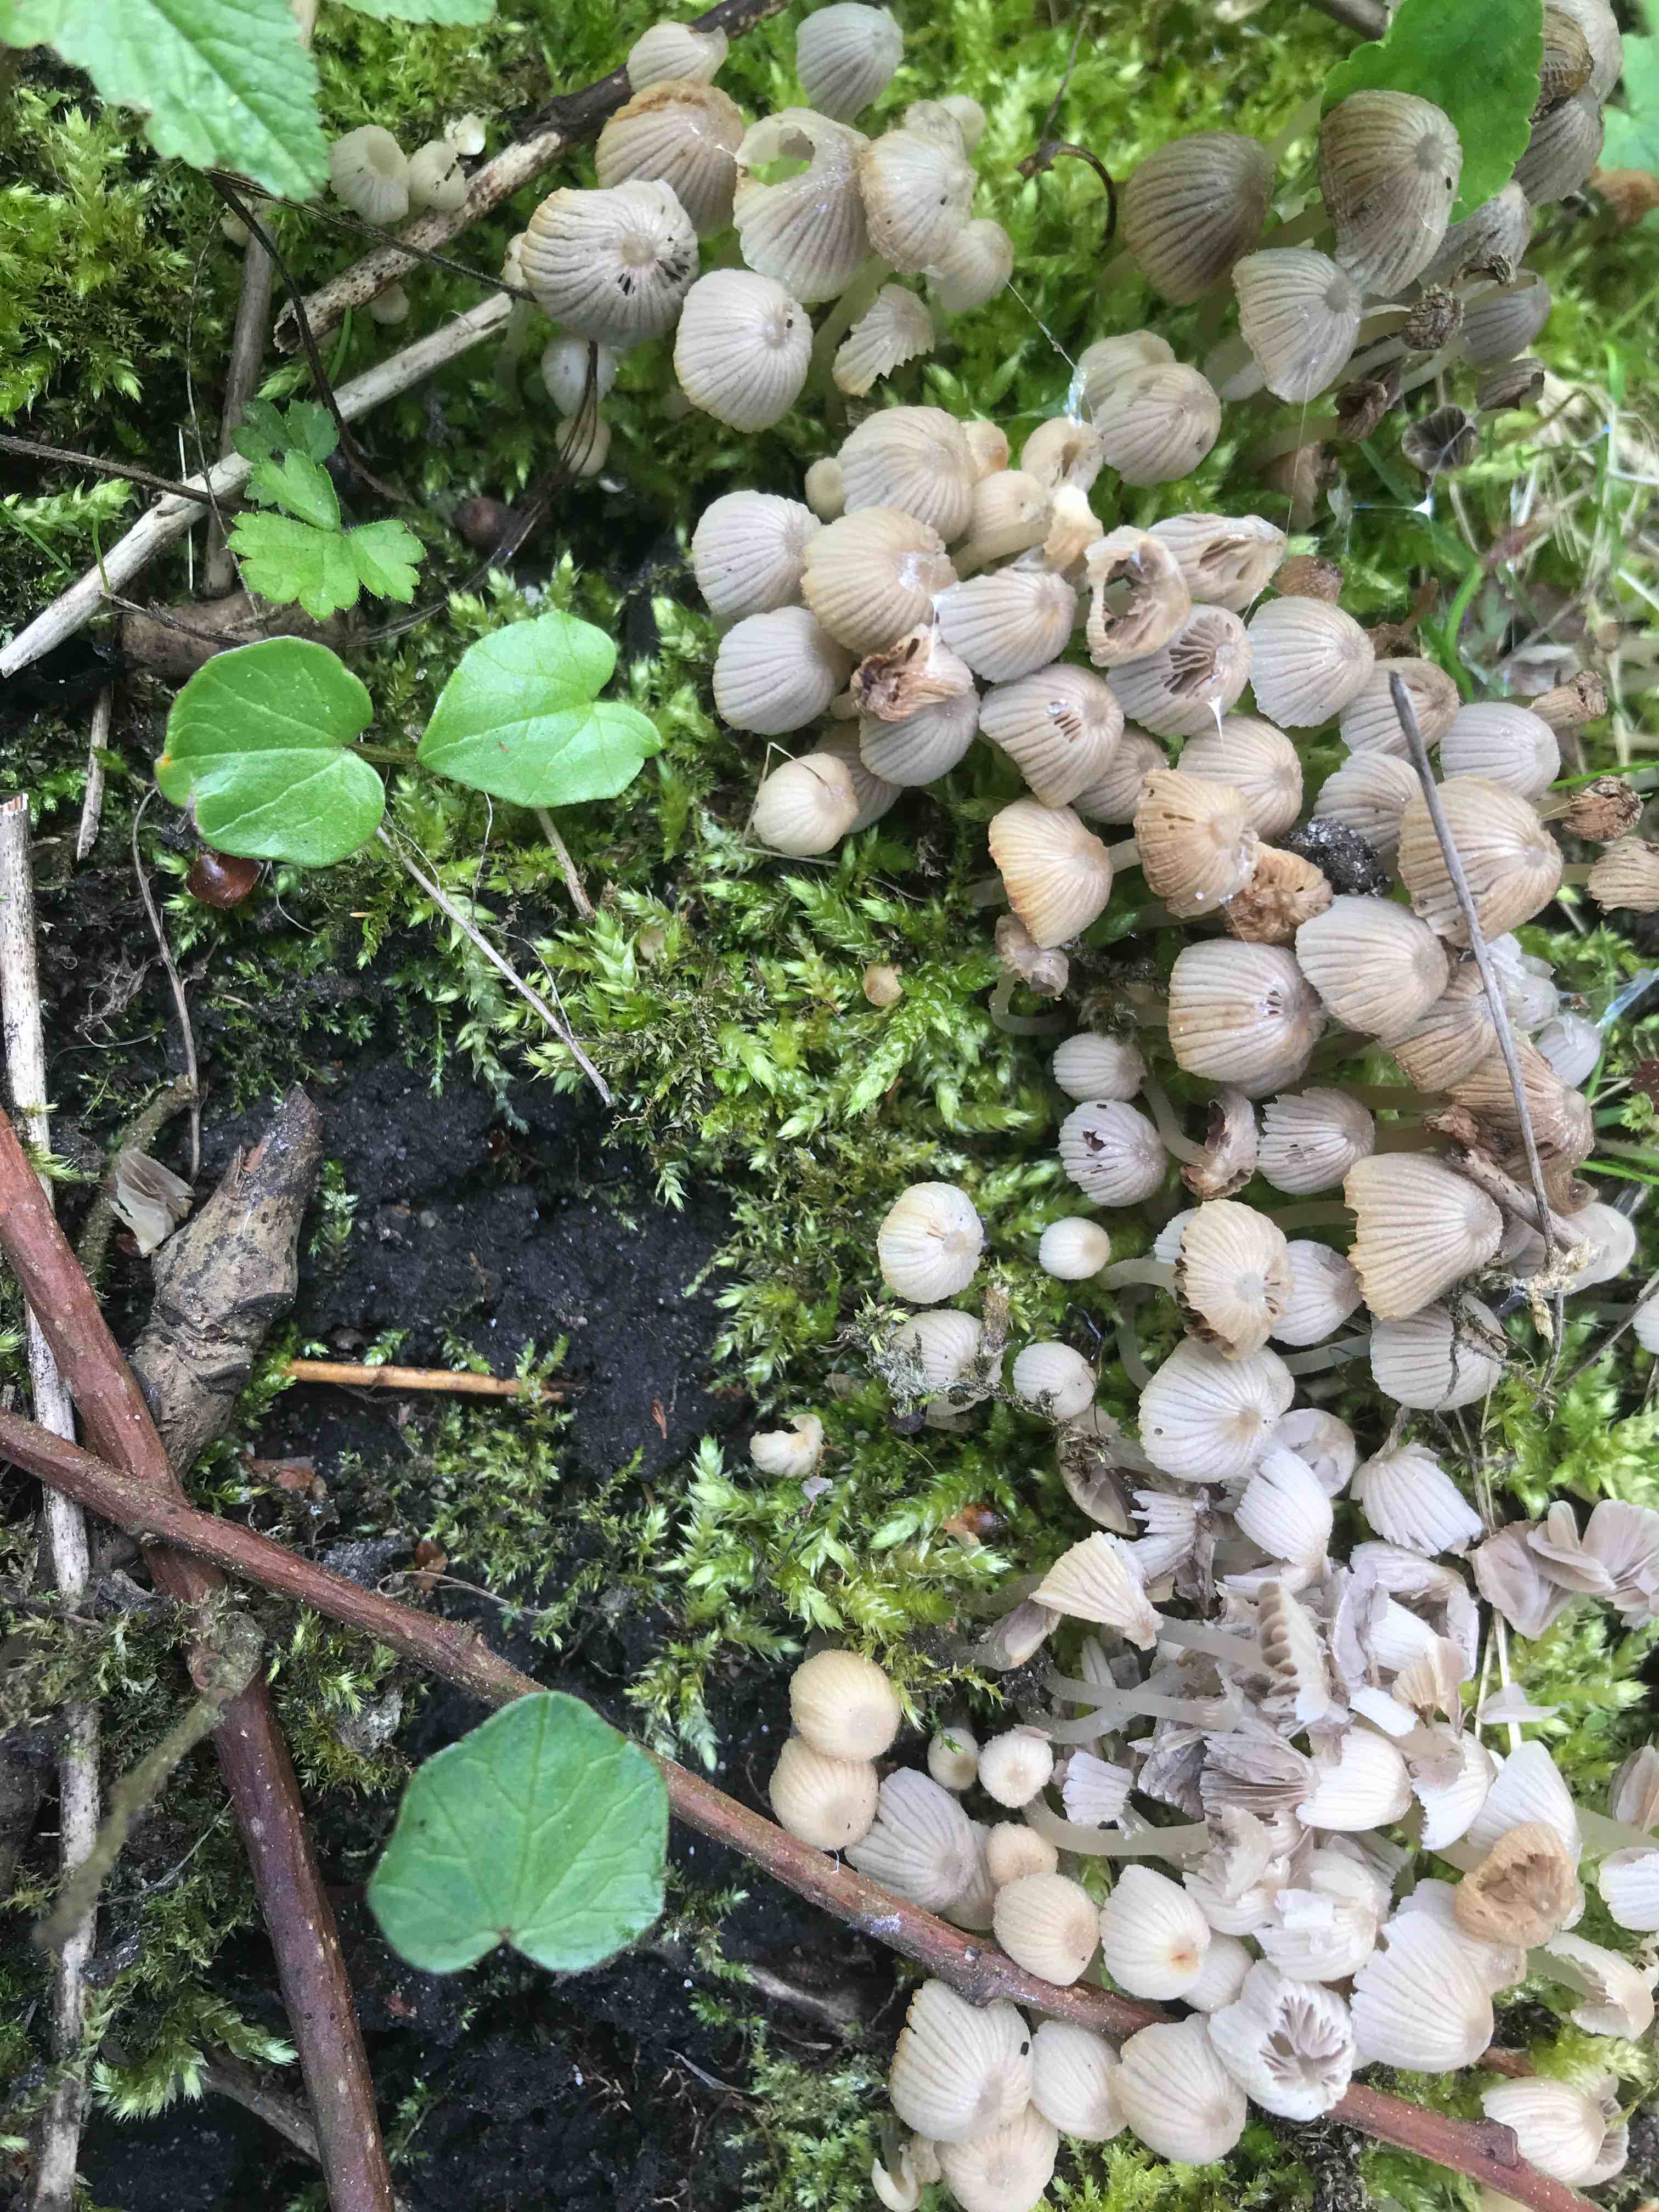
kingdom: Fungi
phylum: Basidiomycota
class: Agaricomycetes
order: Agaricales
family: Psathyrellaceae
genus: Coprinellus
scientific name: Coprinellus disseminatus
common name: bredsået blækhat
